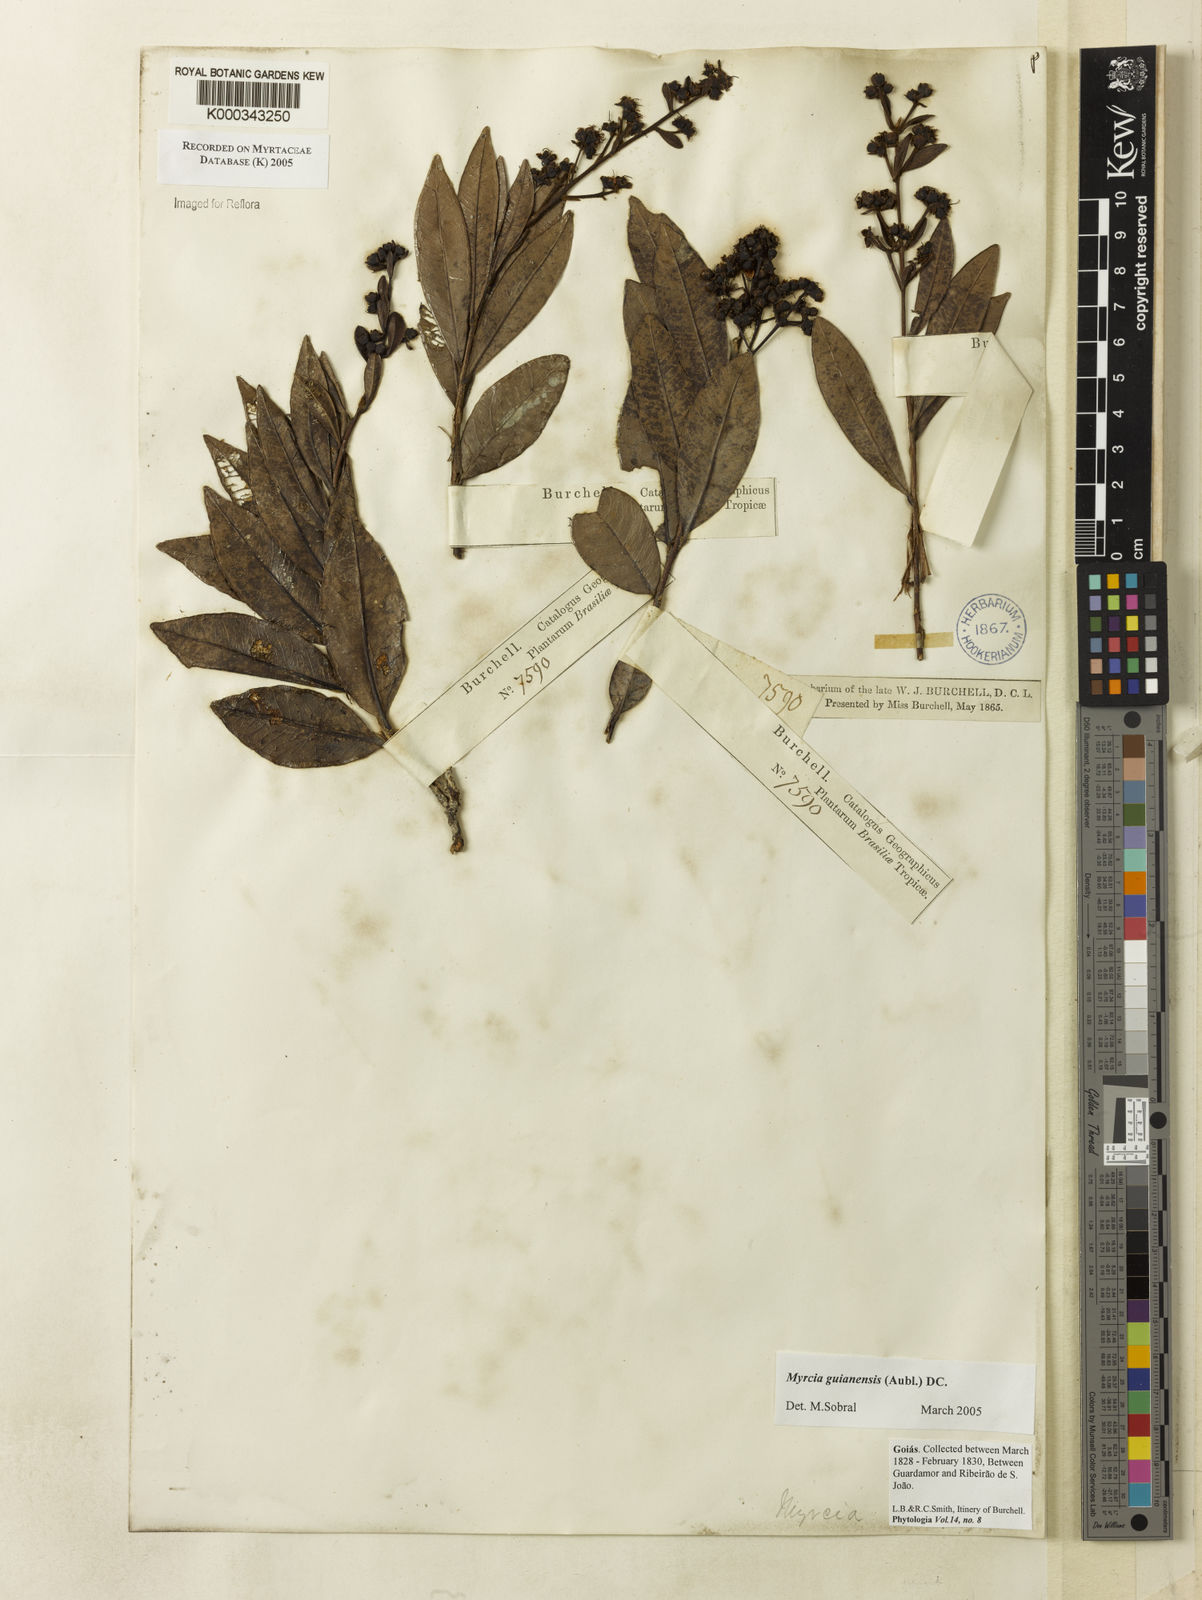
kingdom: Plantae
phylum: Tracheophyta
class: Magnoliopsida
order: Myrtales
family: Myrtaceae
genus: Myrcia
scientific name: Myrcia guianensis
